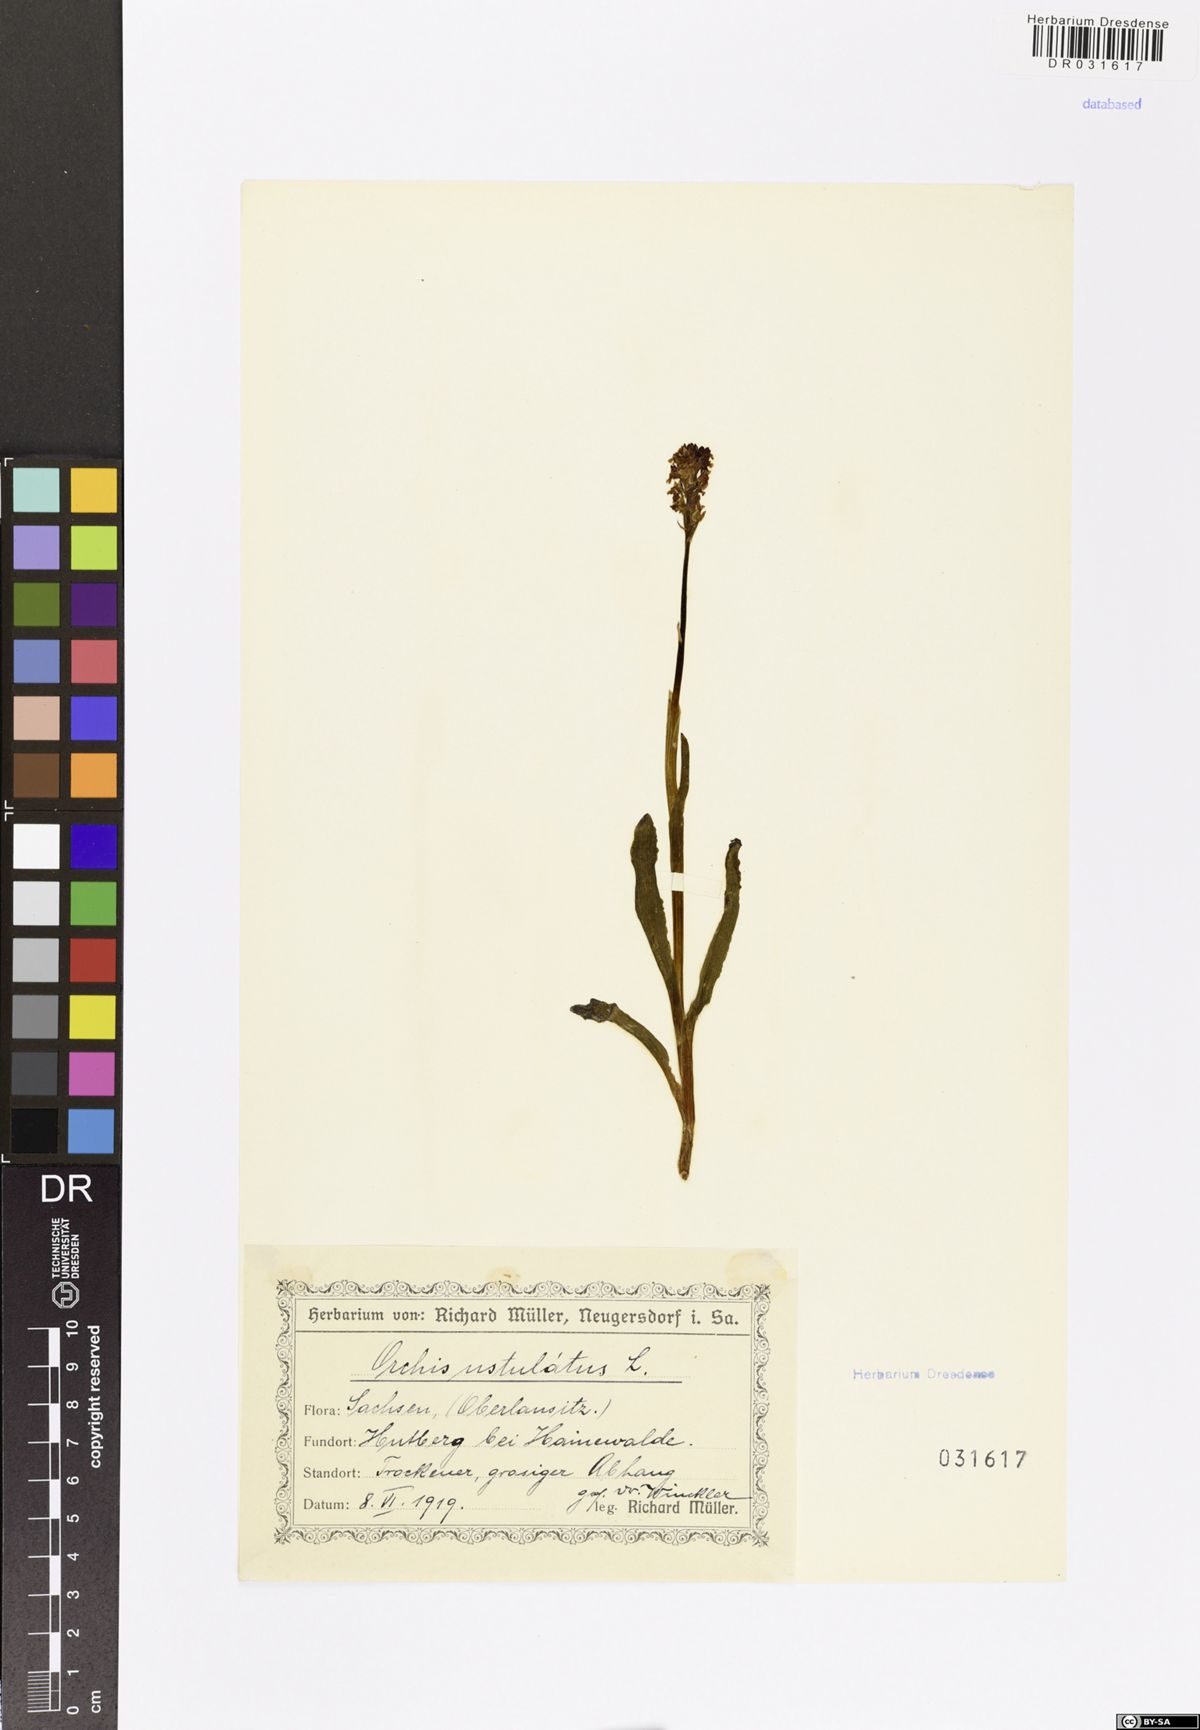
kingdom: Plantae
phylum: Tracheophyta
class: Liliopsida
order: Asparagales
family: Orchidaceae
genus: Neotinea
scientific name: Neotinea ustulata
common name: Burnt orchid
